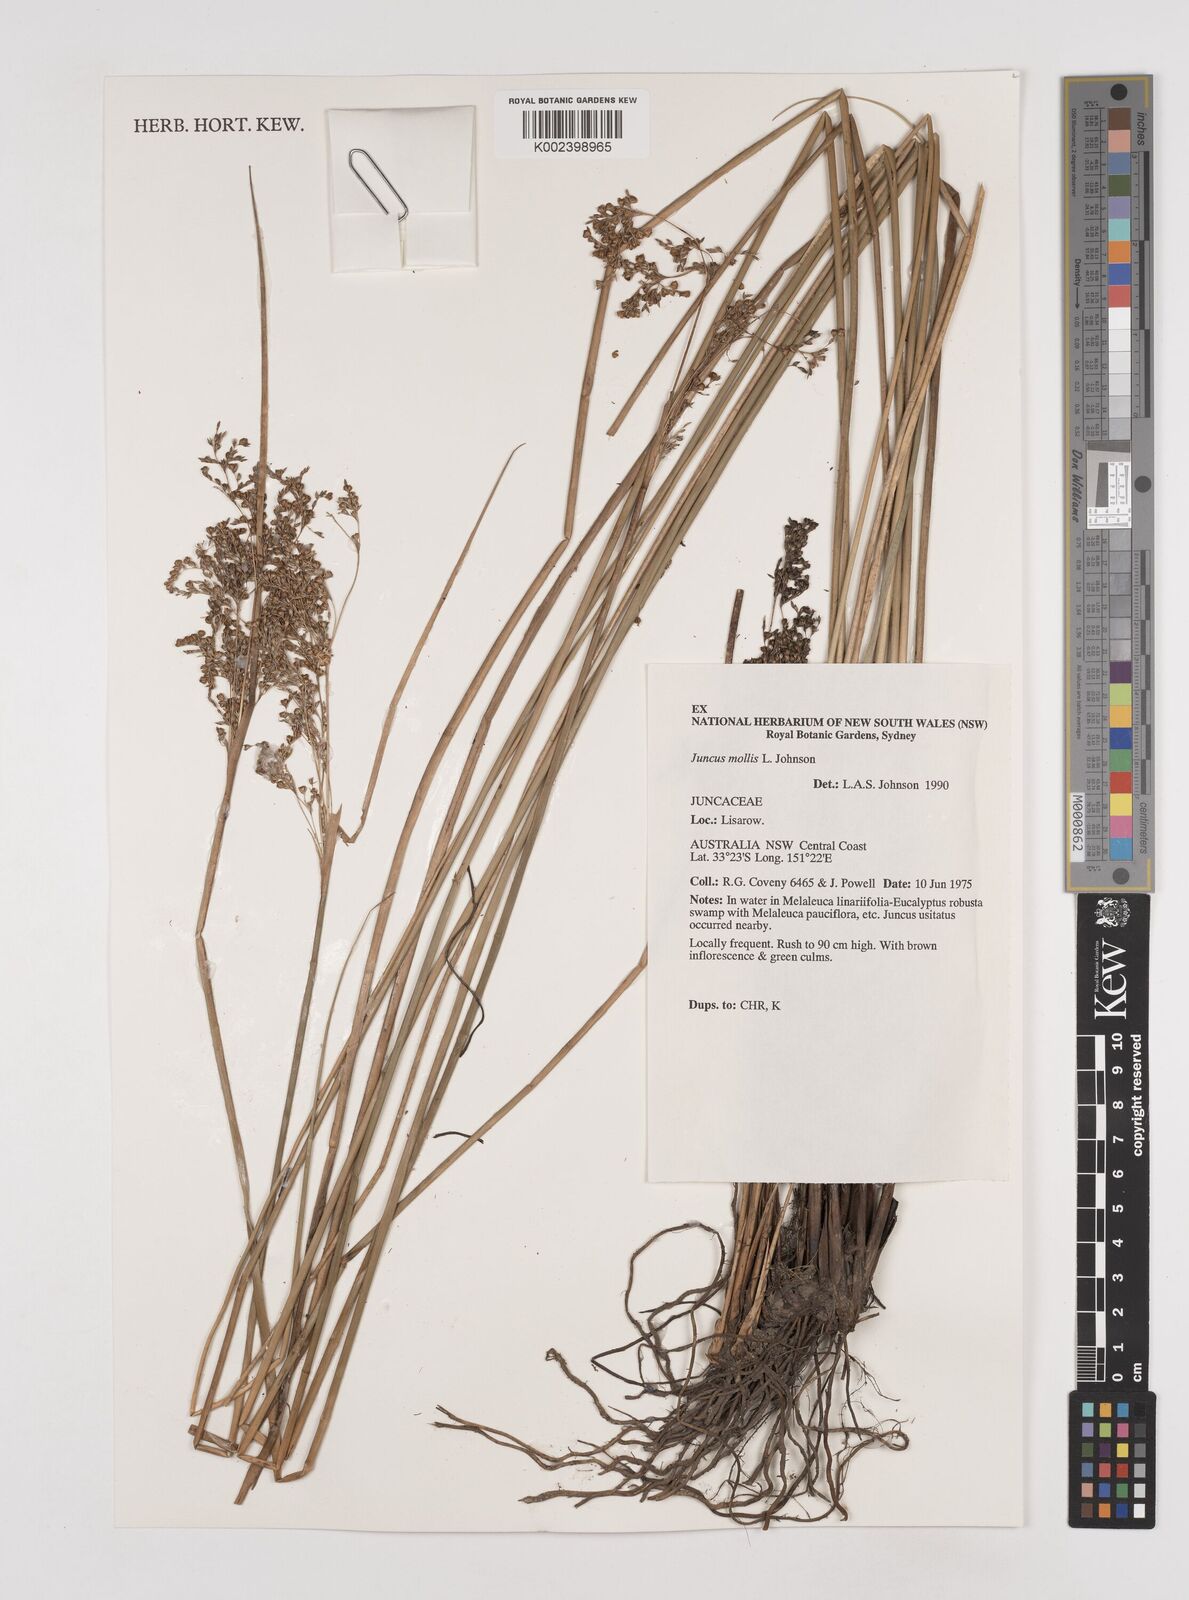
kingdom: Plantae
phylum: Tracheophyta
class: Liliopsida
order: Poales
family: Juncaceae
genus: Juncus
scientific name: Juncus mollis
